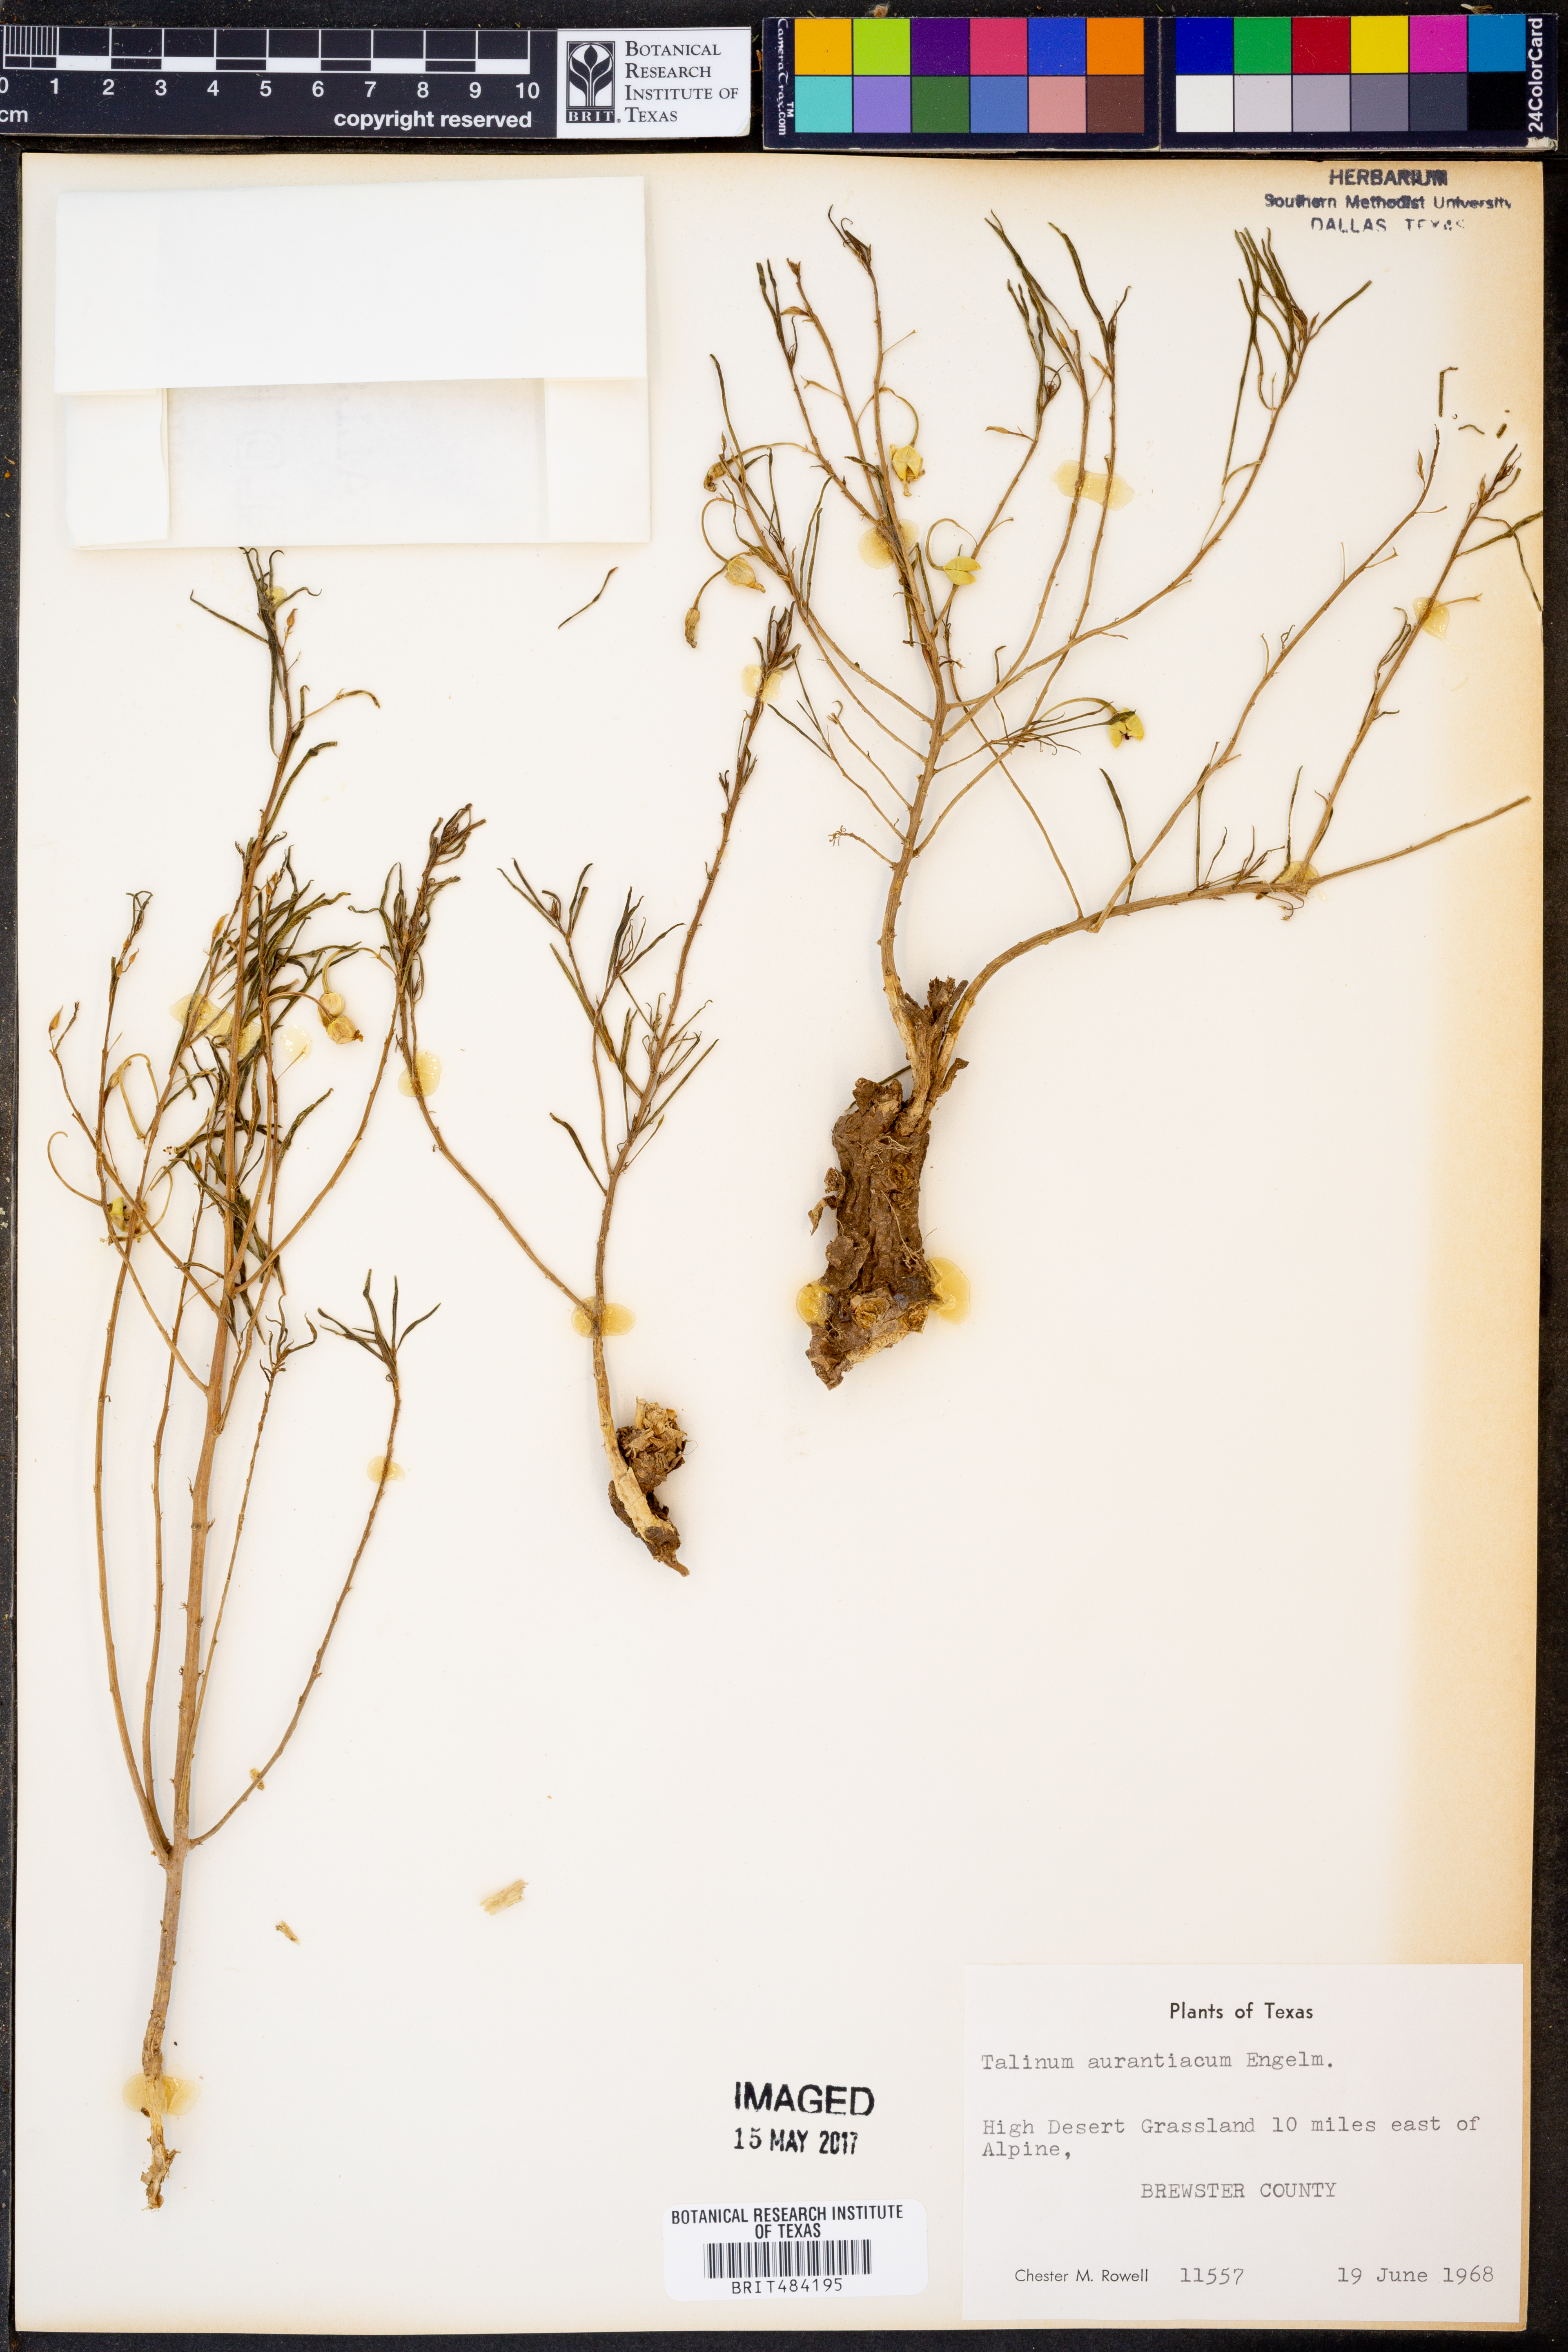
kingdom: Plantae
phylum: Tracheophyta
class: Magnoliopsida
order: Caryophyllales
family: Montiaceae
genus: Phemeranthus
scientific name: Phemeranthus aurantiacus
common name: Orange fameflower
